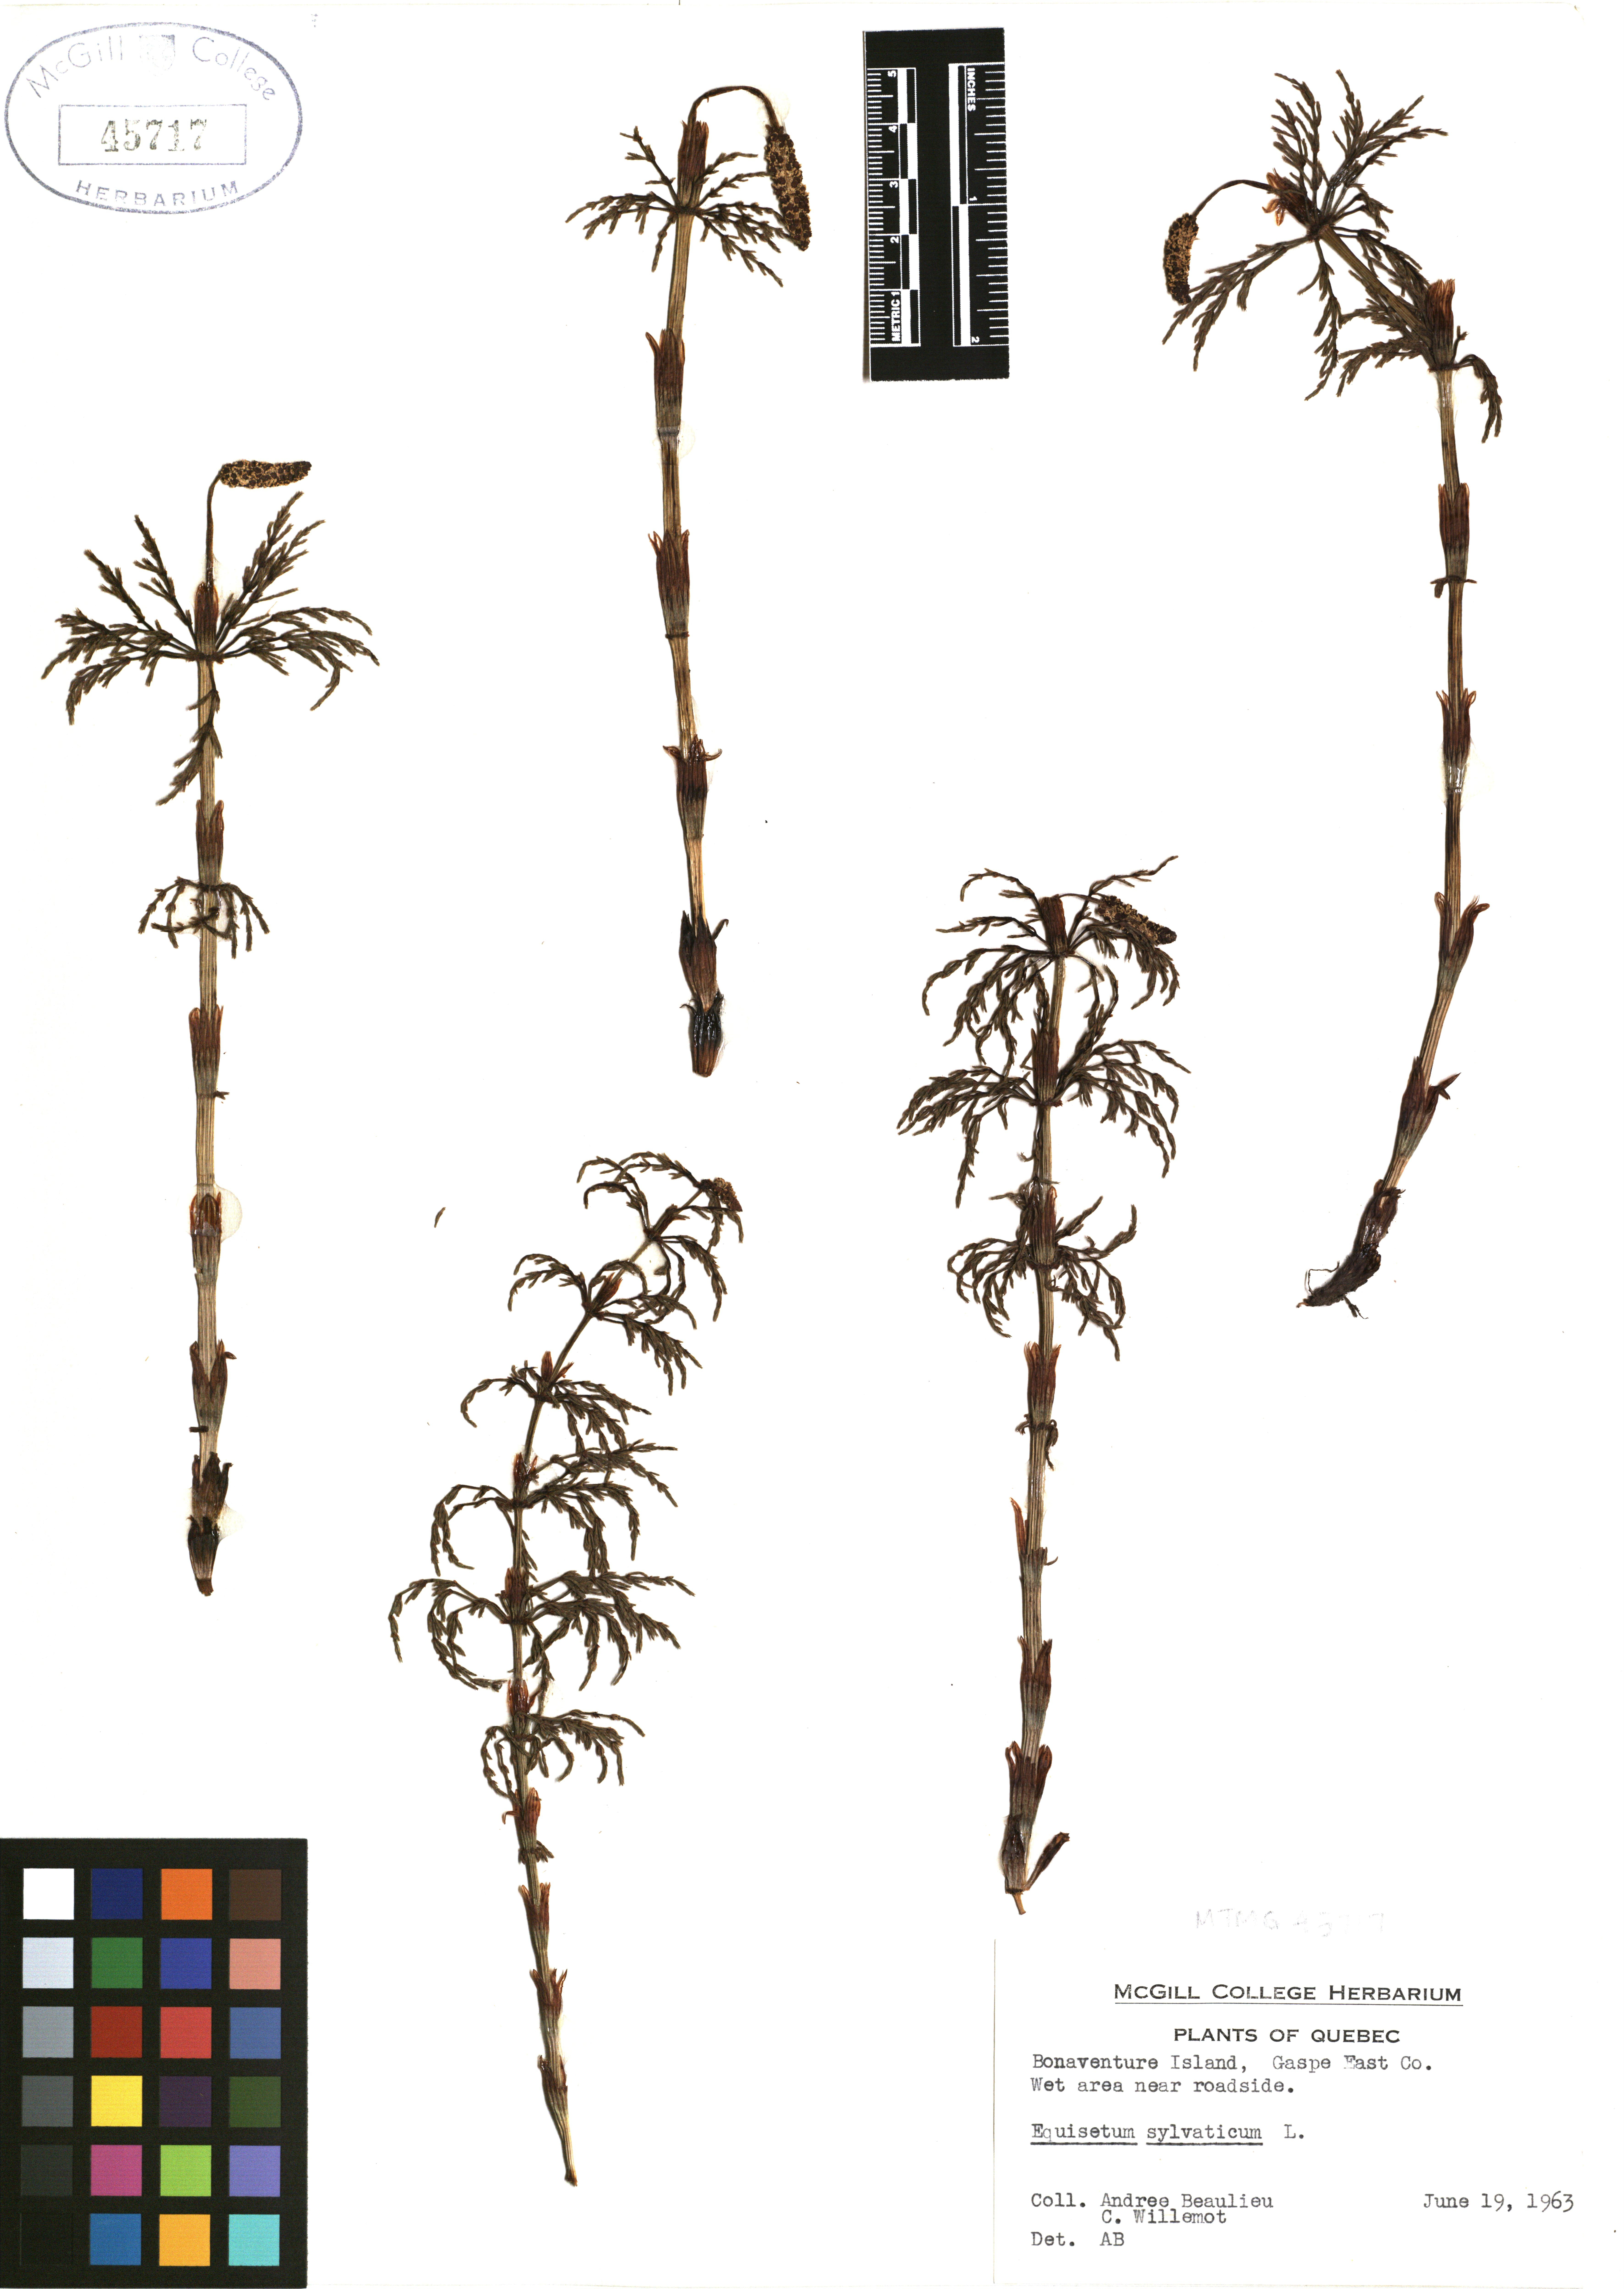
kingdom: Plantae
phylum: Tracheophyta
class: Polypodiopsida
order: Equisetales
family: Equisetaceae
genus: Equisetum
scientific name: Equisetum sylvaticum
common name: Wood horsetail
